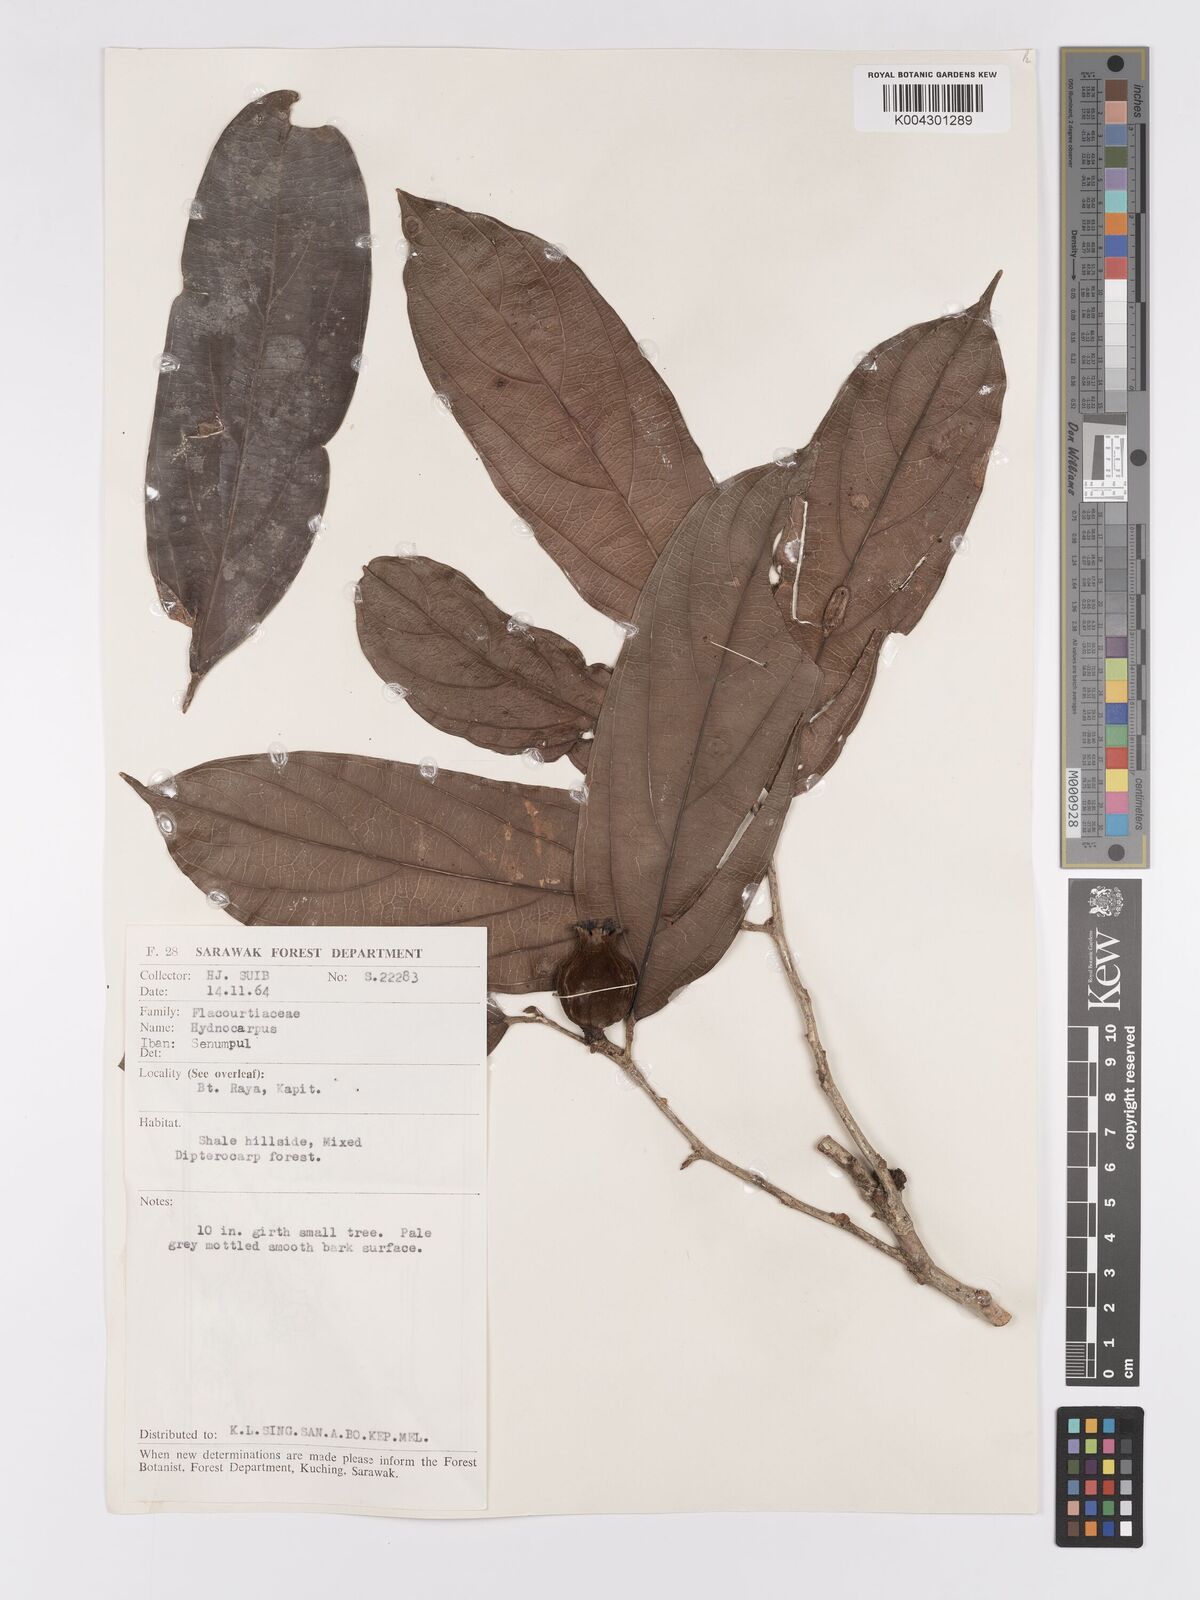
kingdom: Plantae
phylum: Tracheophyta
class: Magnoliopsida
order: Malpighiales
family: Achariaceae
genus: Hydnocarpus
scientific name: Hydnocarpus
